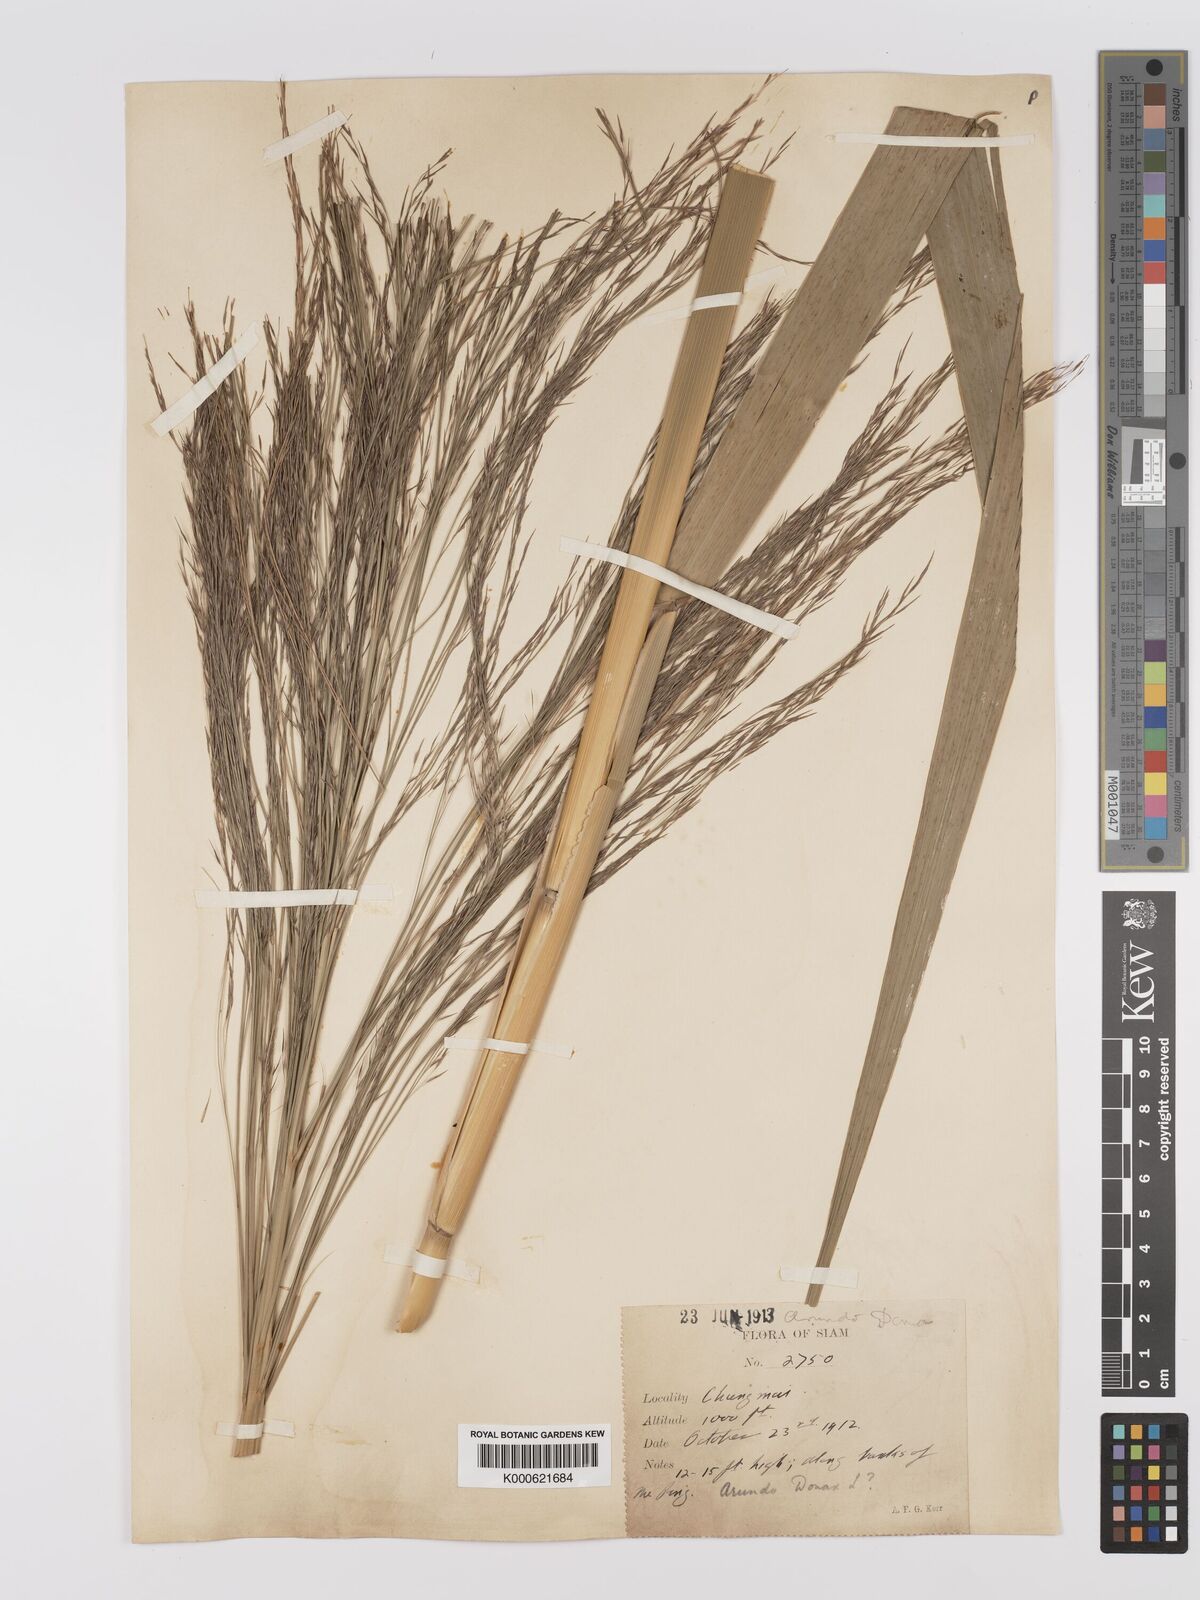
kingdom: Plantae
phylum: Tracheophyta
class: Liliopsida
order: Poales
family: Poaceae
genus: Arundo
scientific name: Arundo donax
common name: Giant reed
